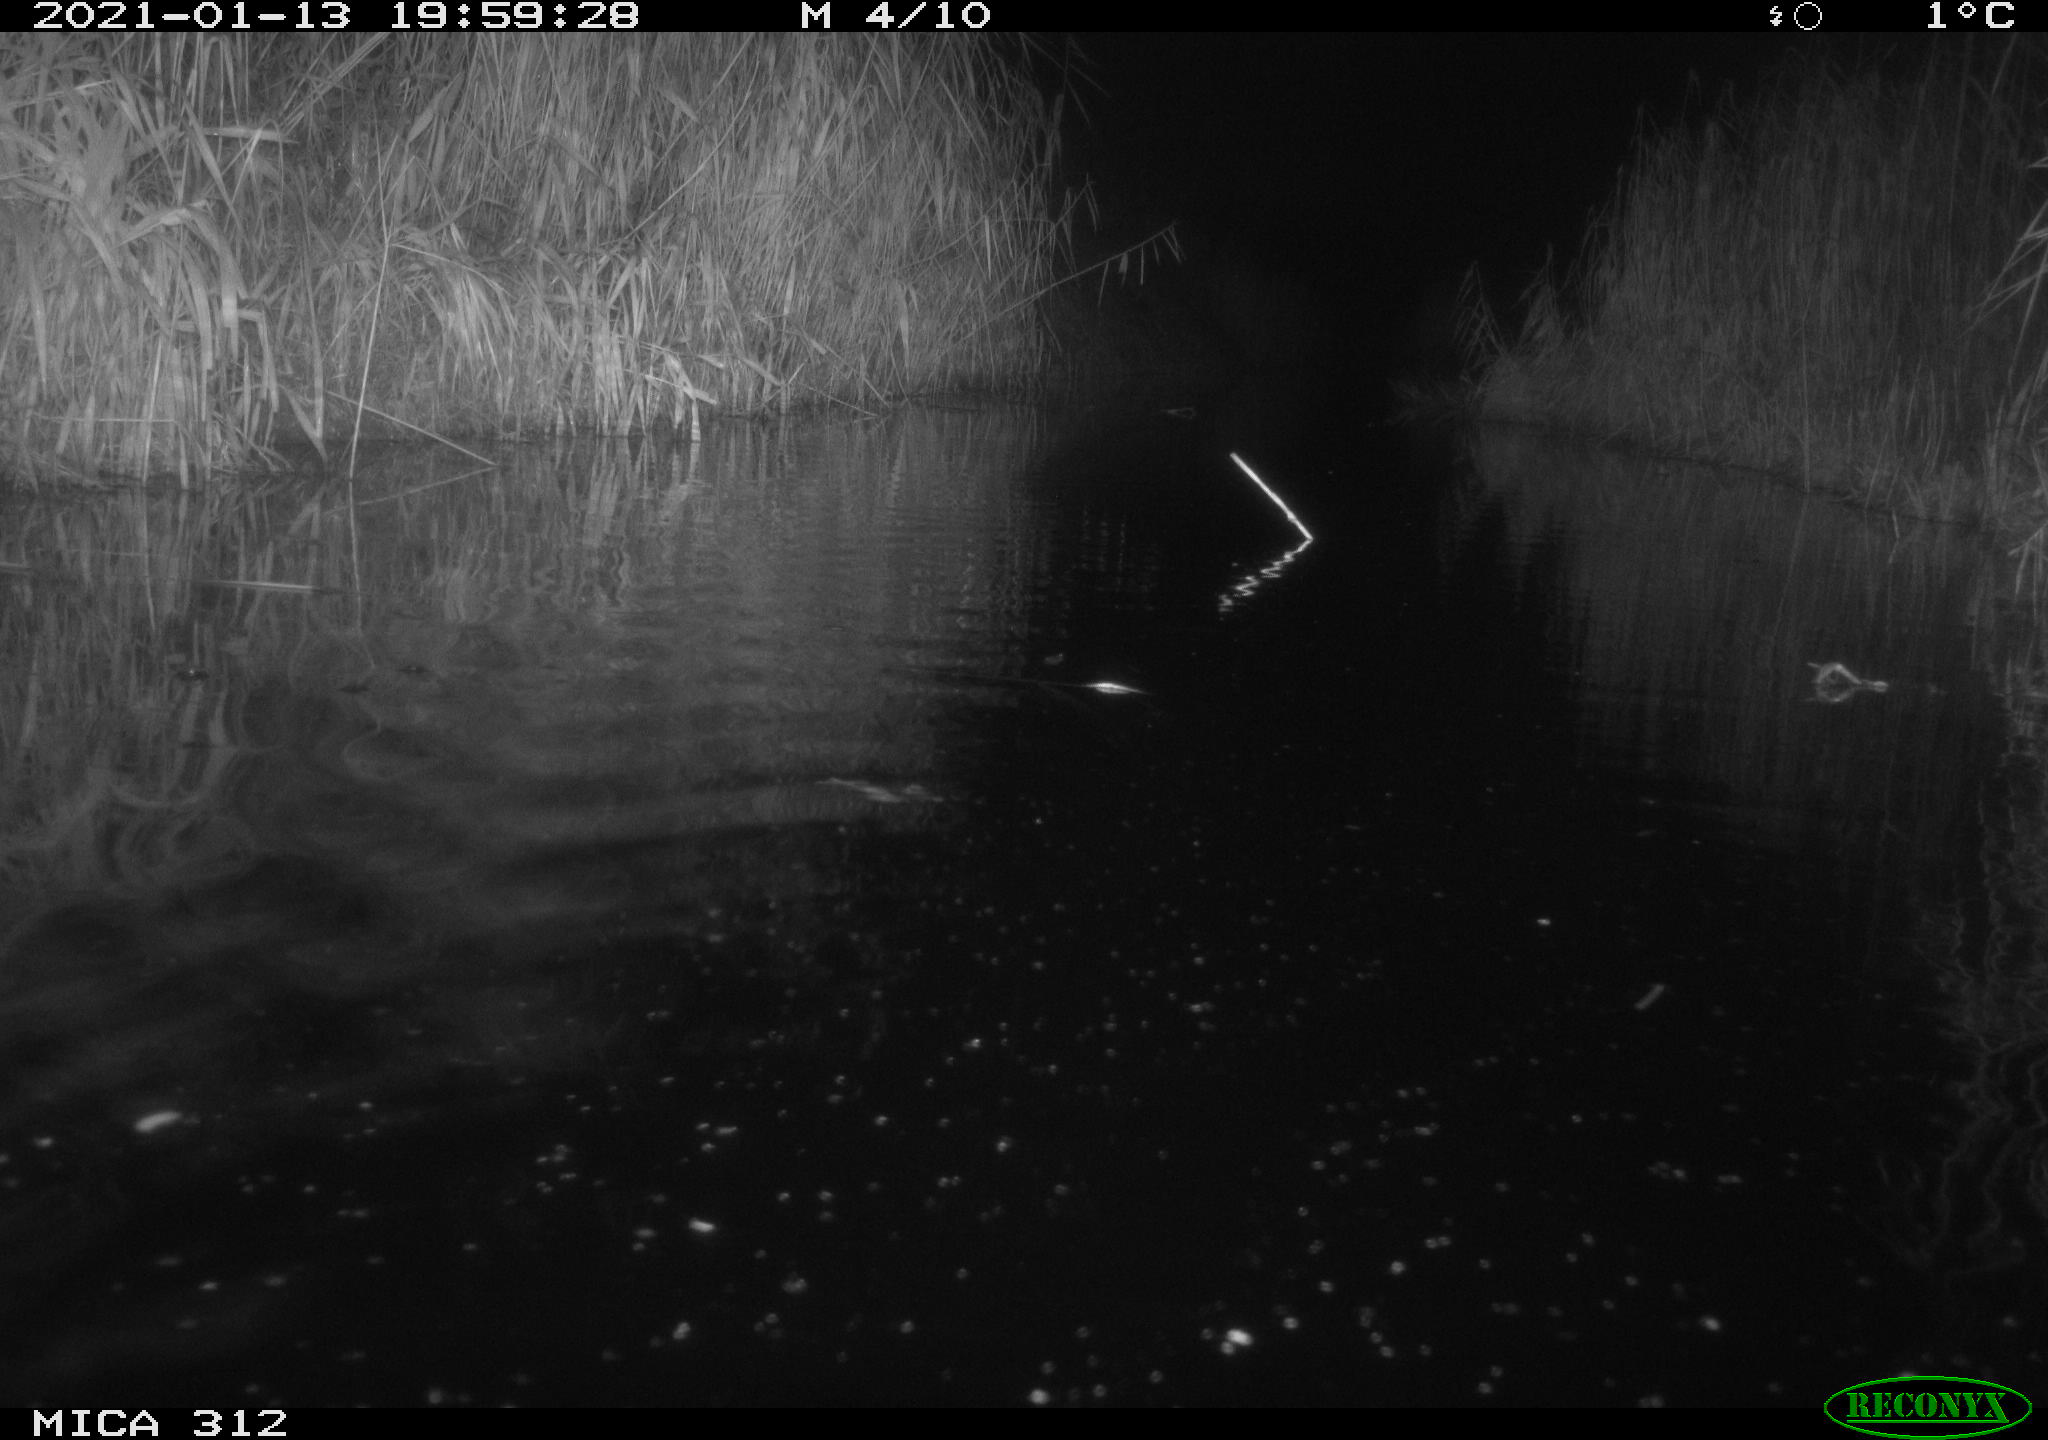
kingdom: Animalia
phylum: Chordata
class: Mammalia
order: Rodentia
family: Muridae
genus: Rattus
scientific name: Rattus norvegicus
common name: Brown rat
